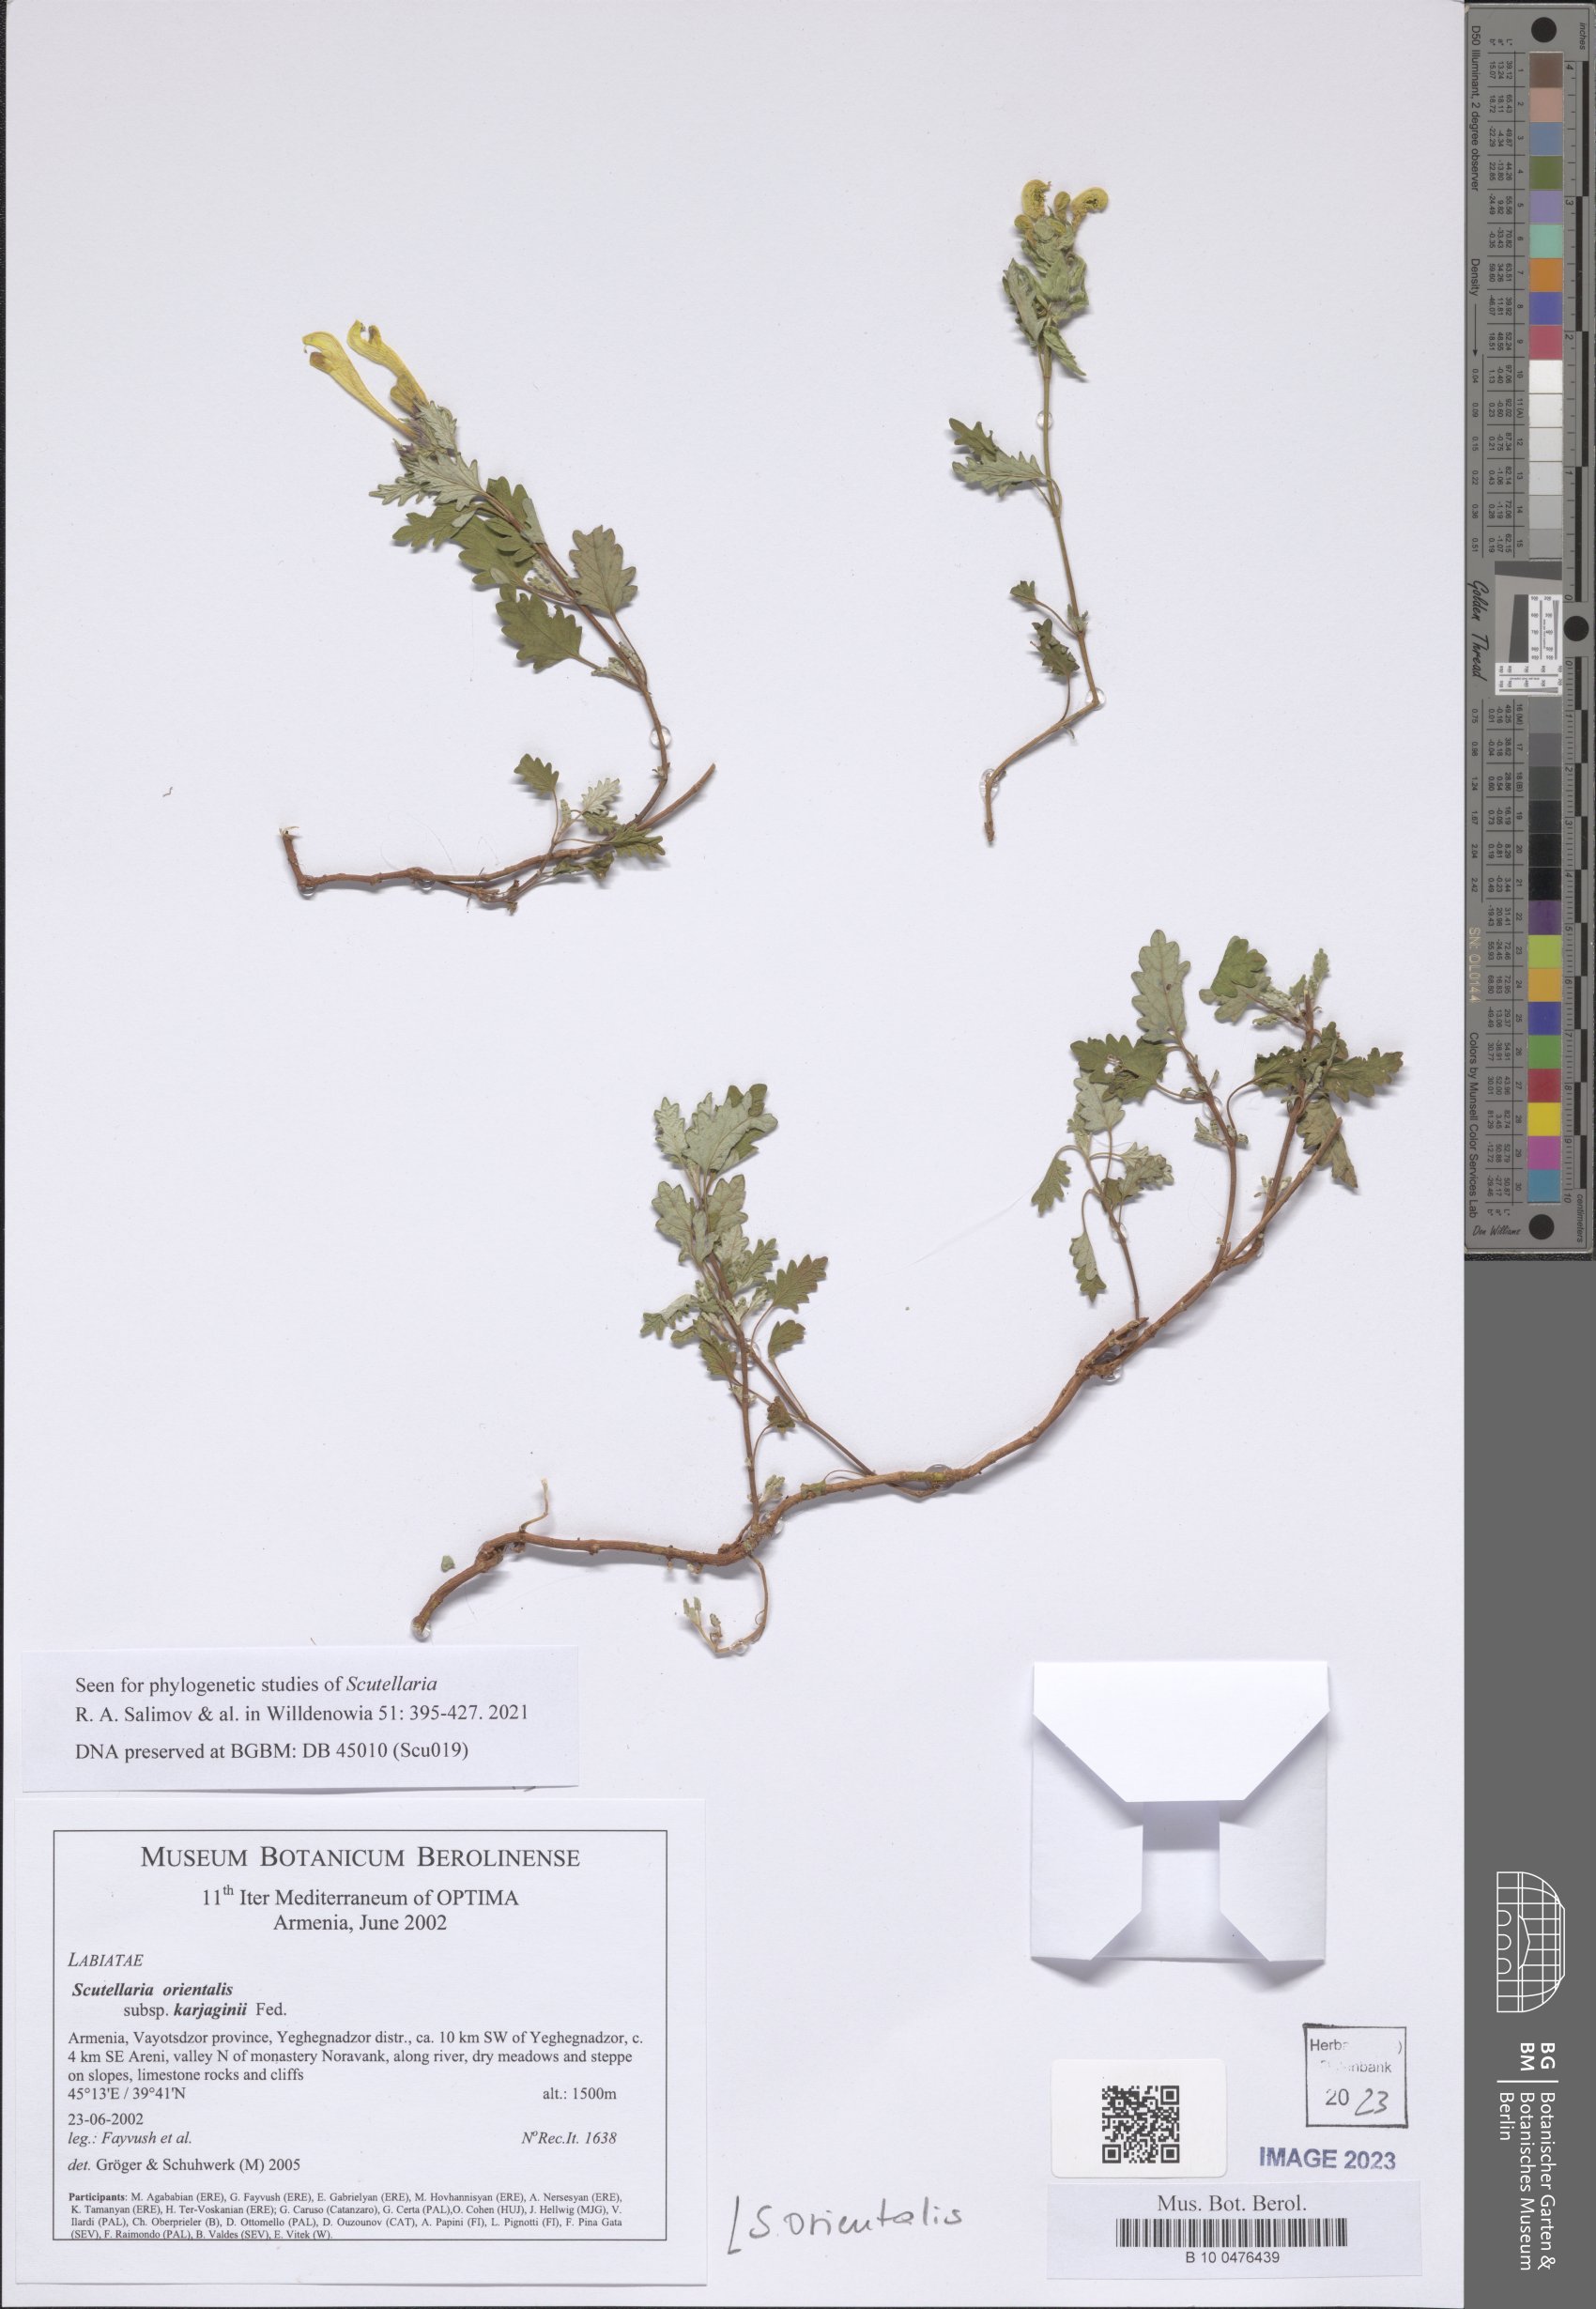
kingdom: Plantae
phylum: Tracheophyta
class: Magnoliopsida
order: Lamiales
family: Lamiaceae
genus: Scutellaria
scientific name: Scutellaria orientalis
